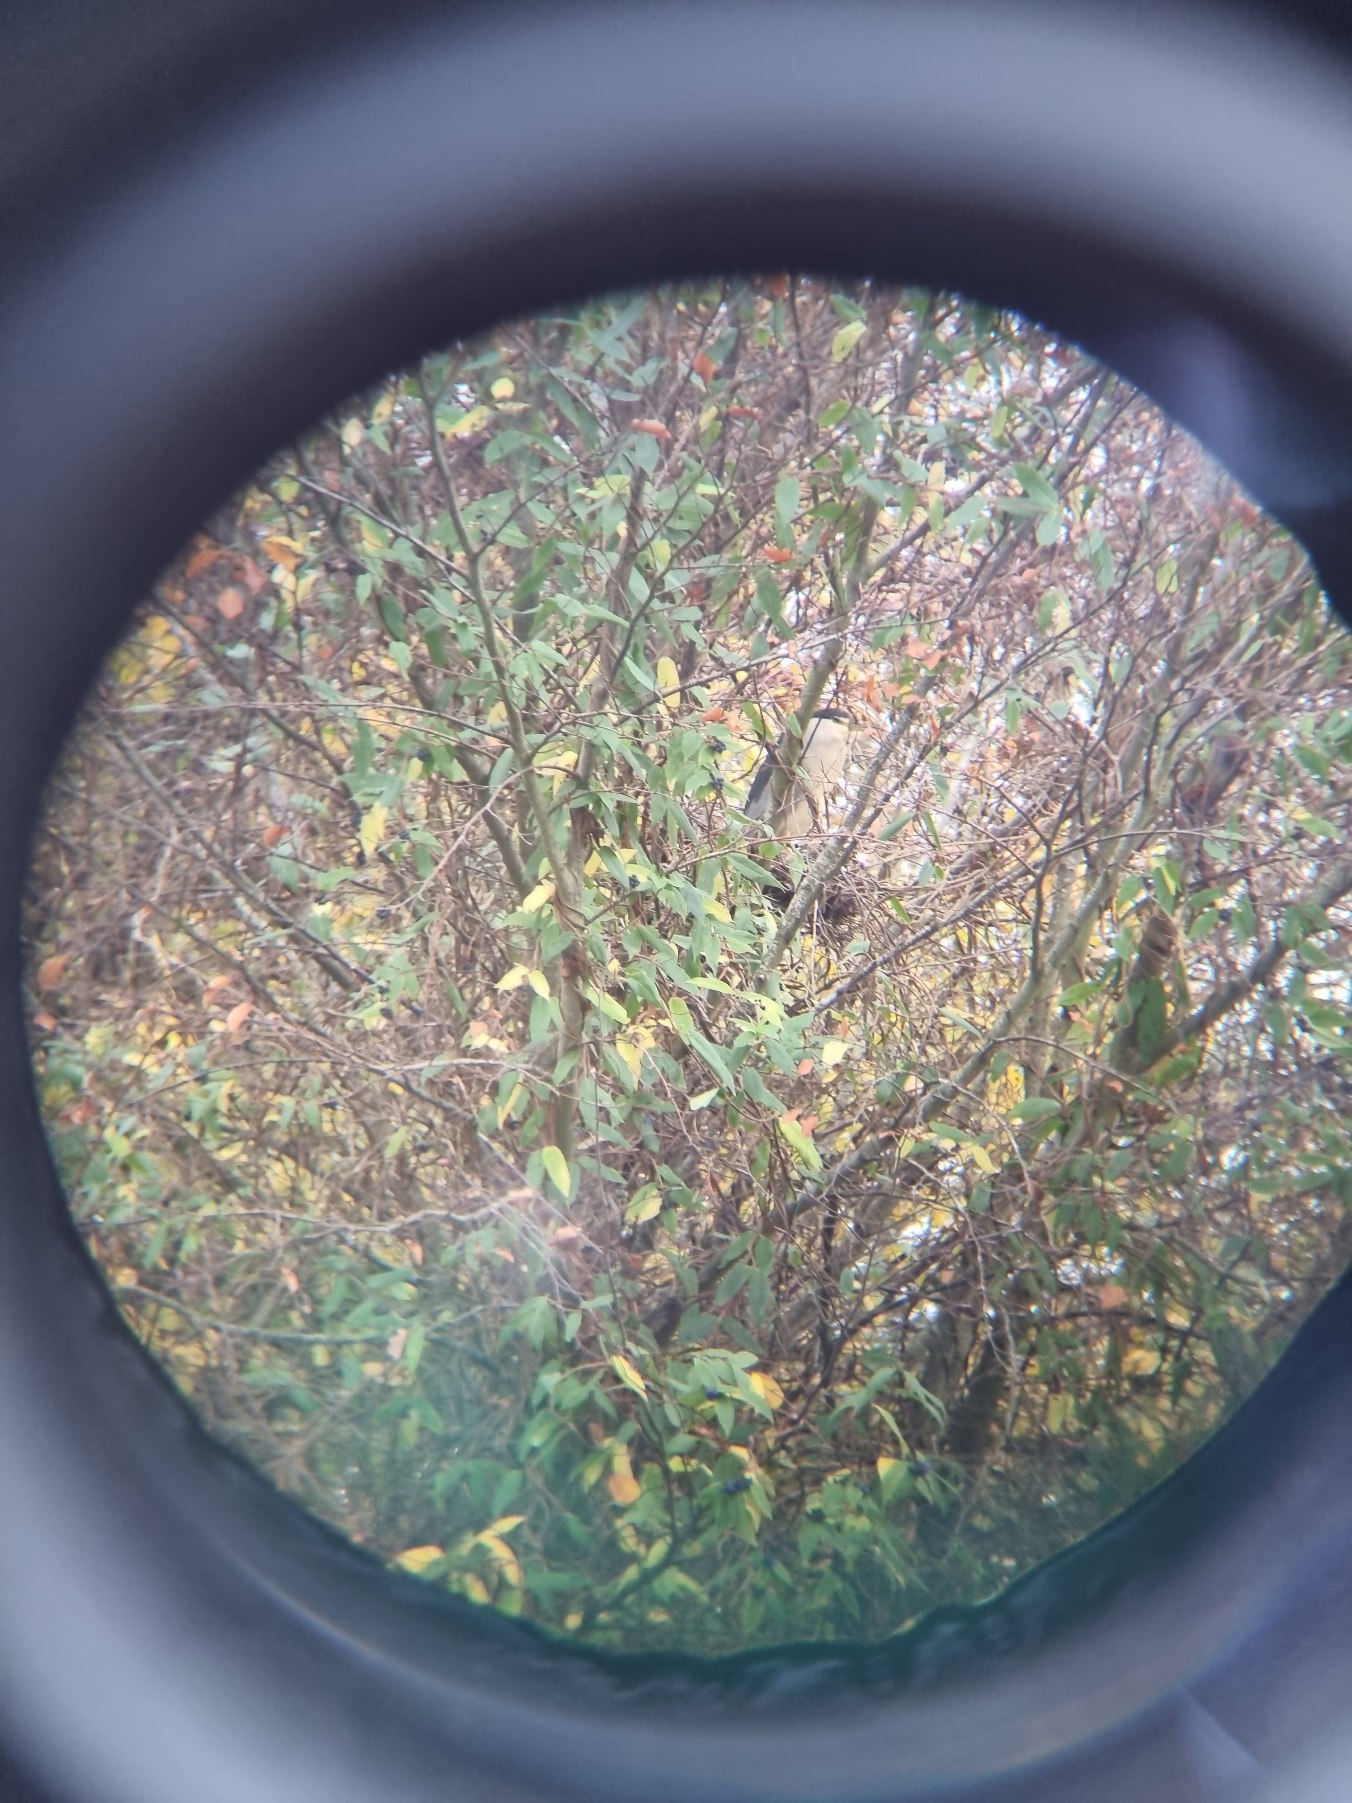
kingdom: Animalia
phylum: Chordata
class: Aves
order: Pelecaniformes
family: Ardeidae
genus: Nycticorax
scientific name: Nycticorax nycticorax
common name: Nathejre
